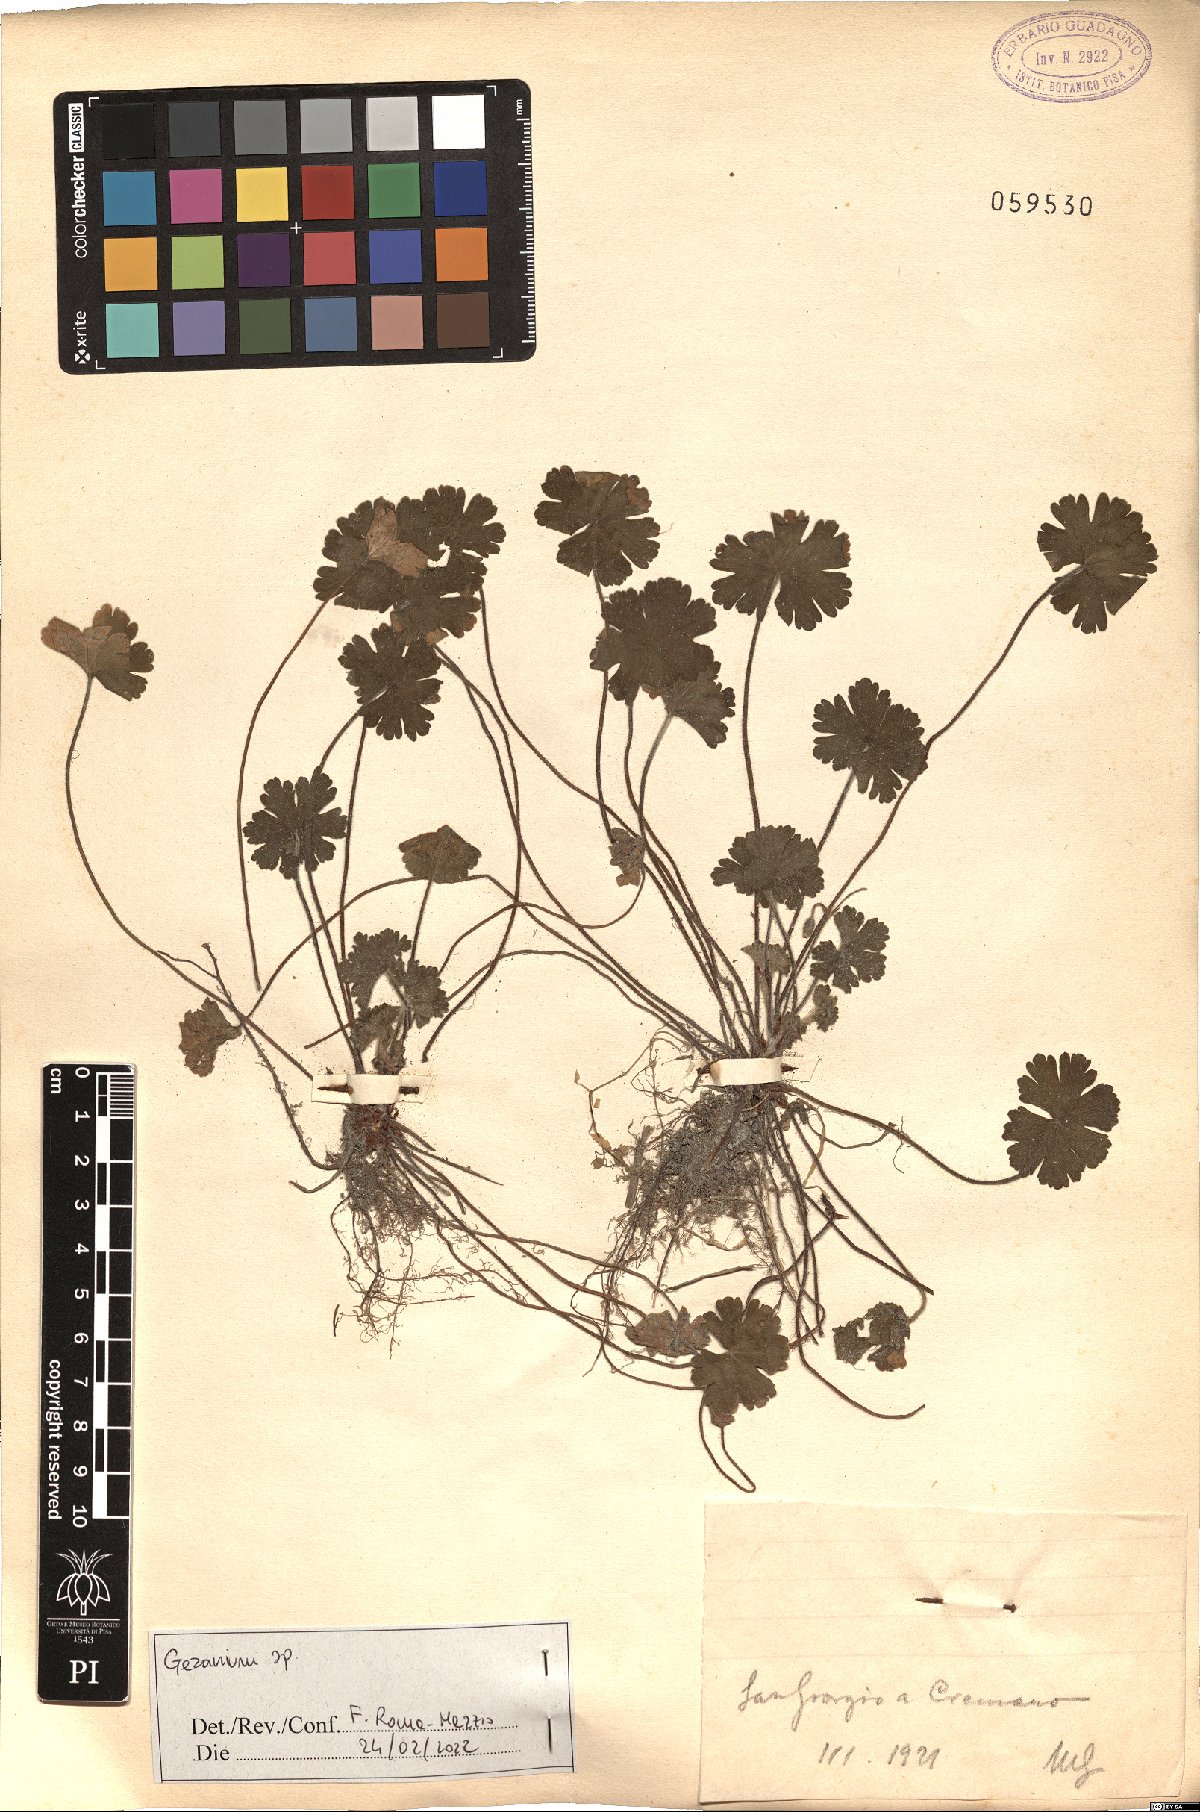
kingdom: Plantae
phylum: Tracheophyta
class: Magnoliopsida
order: Geraniales
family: Geraniaceae
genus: Geranium
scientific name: Geranium
